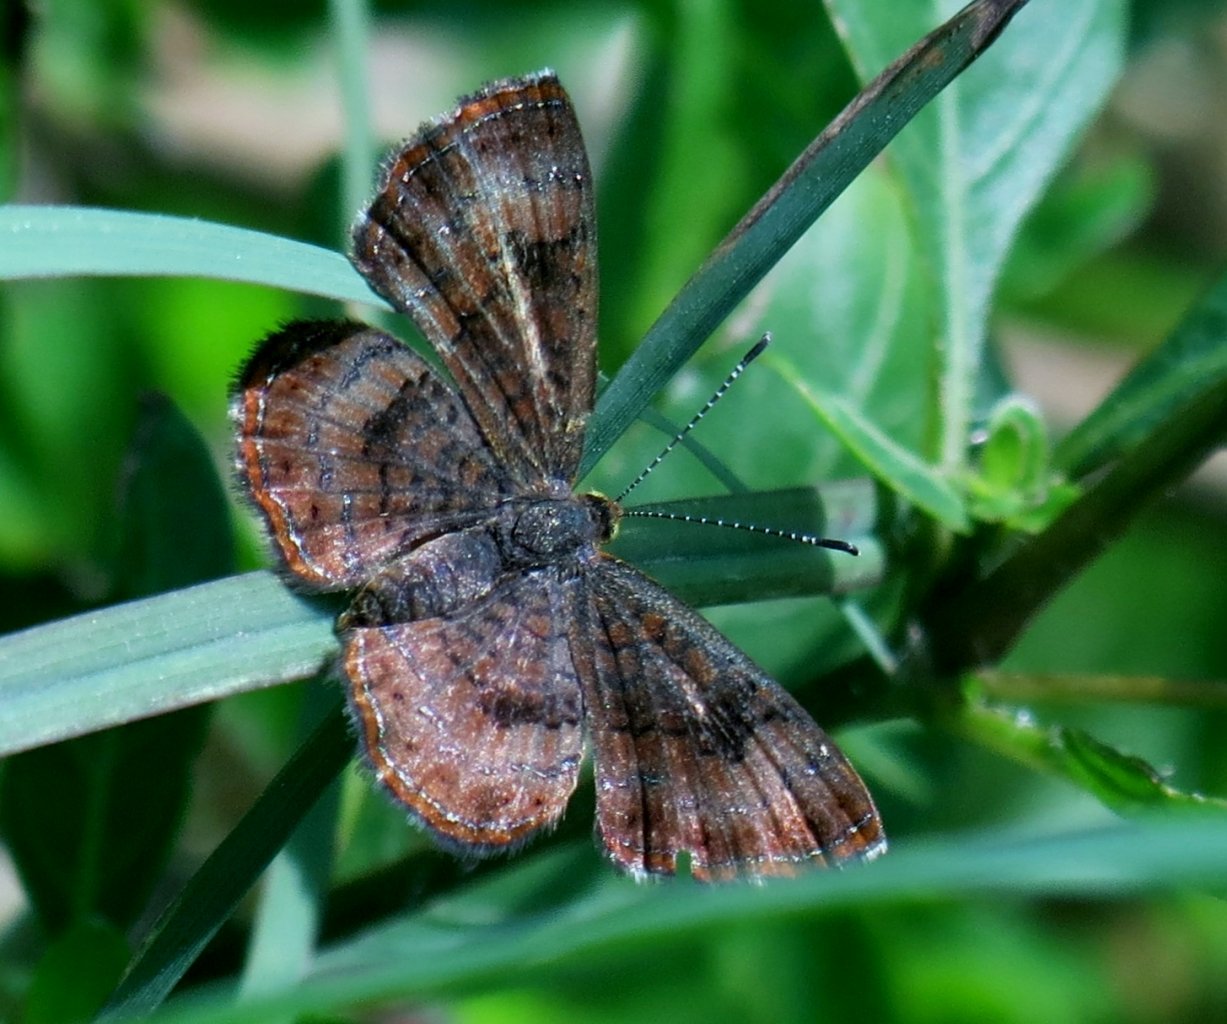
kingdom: Animalia
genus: Calephelis
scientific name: Calephelis nemesis
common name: Fatal Metalmark
